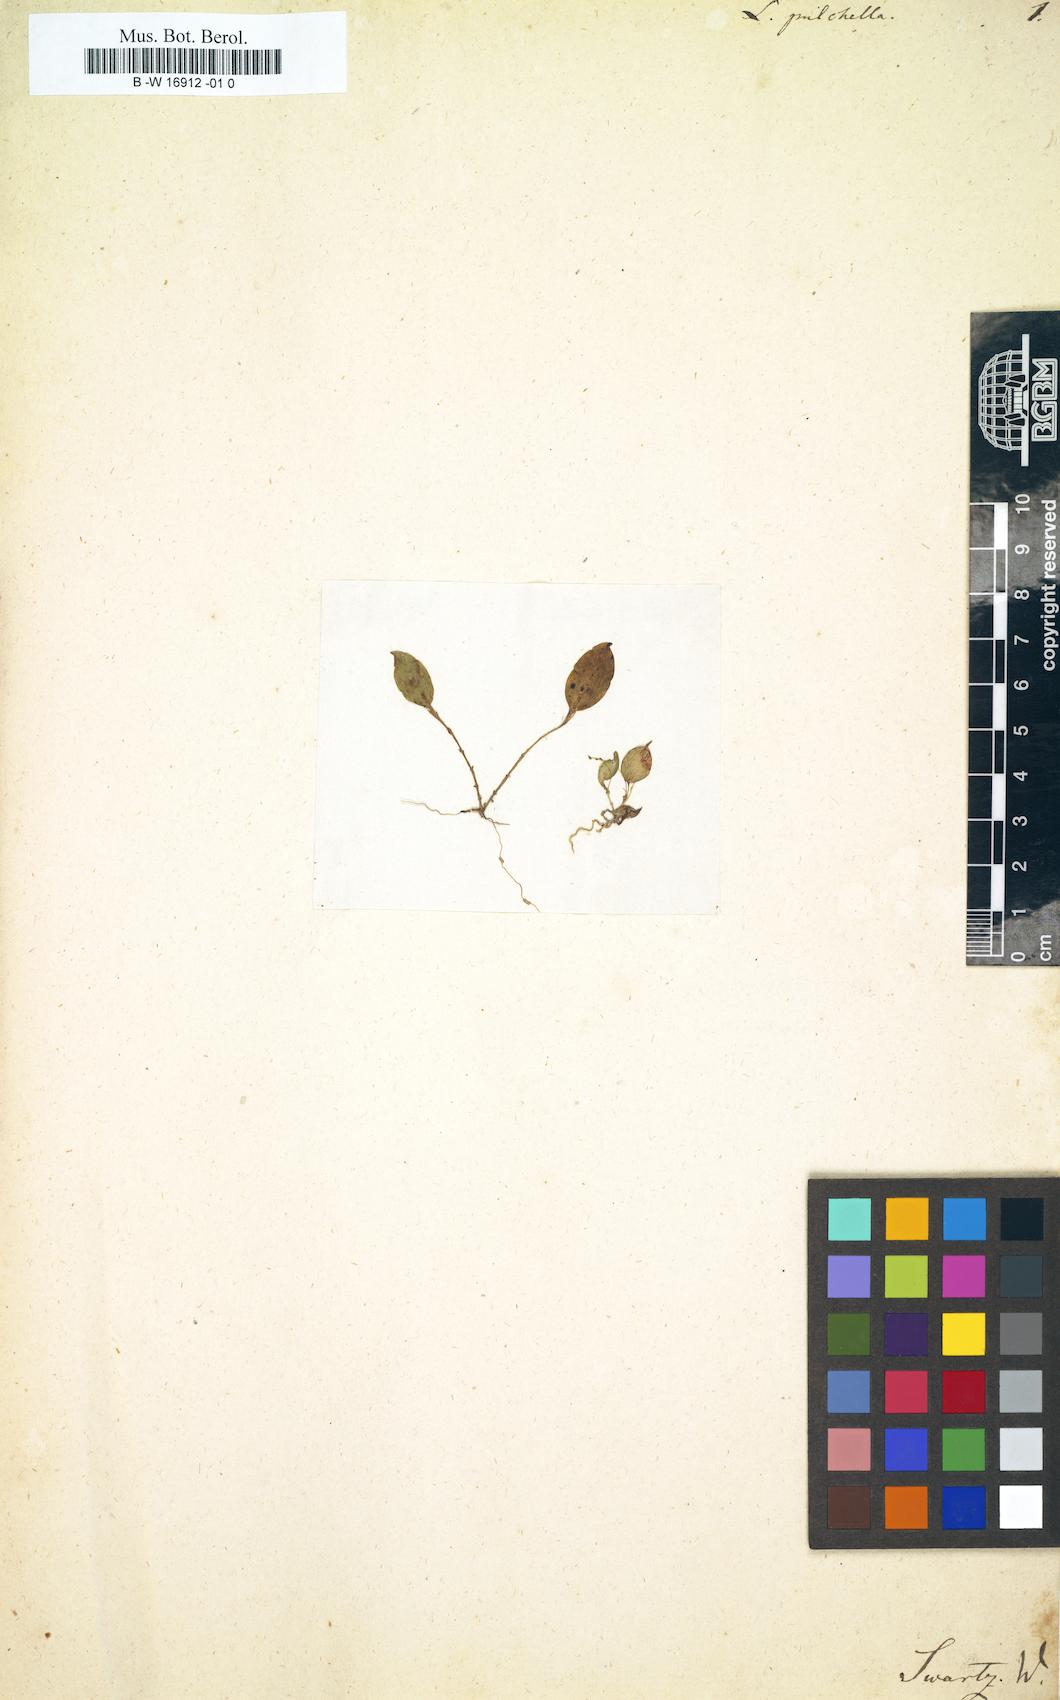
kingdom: Plantae
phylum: Tracheophyta
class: Liliopsida
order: Asparagales
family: Orchidaceae
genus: Lepanthes
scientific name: Lepanthes pulchella
